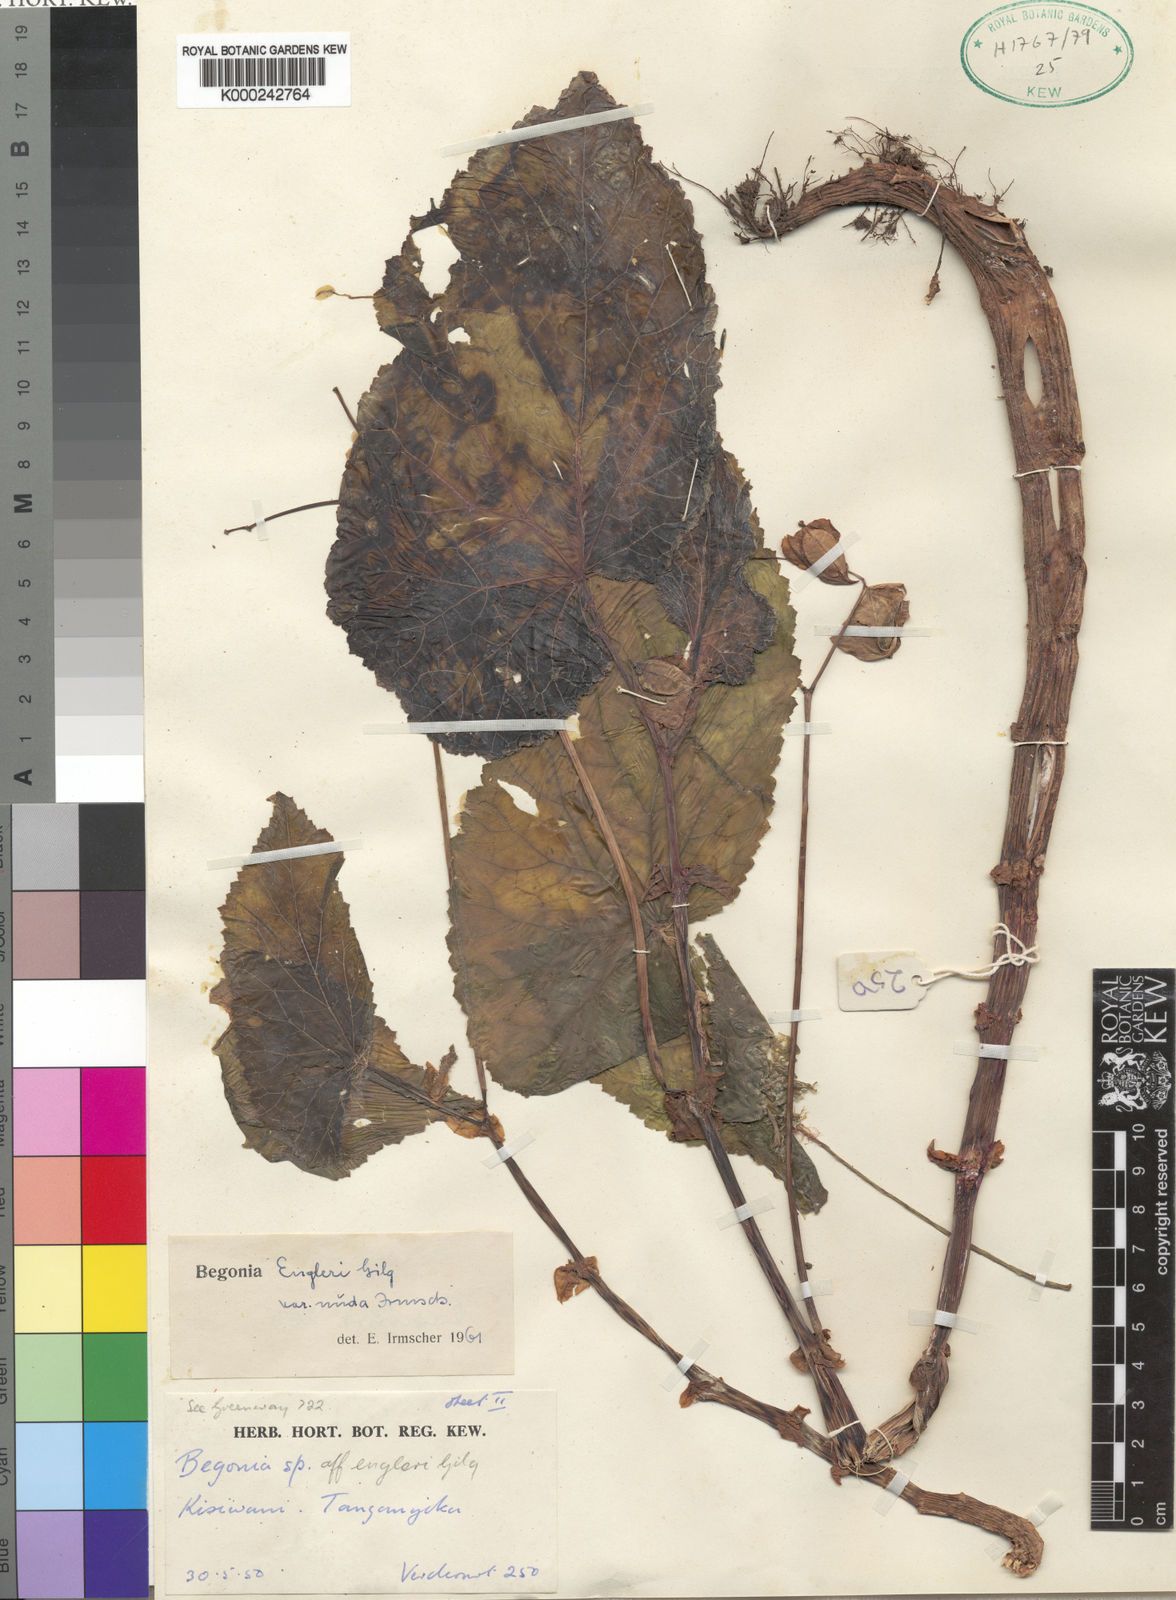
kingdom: Plantae
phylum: Tracheophyta
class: Magnoliopsida
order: Cucurbitales
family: Begoniaceae
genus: Begonia
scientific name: Begonia engleri
